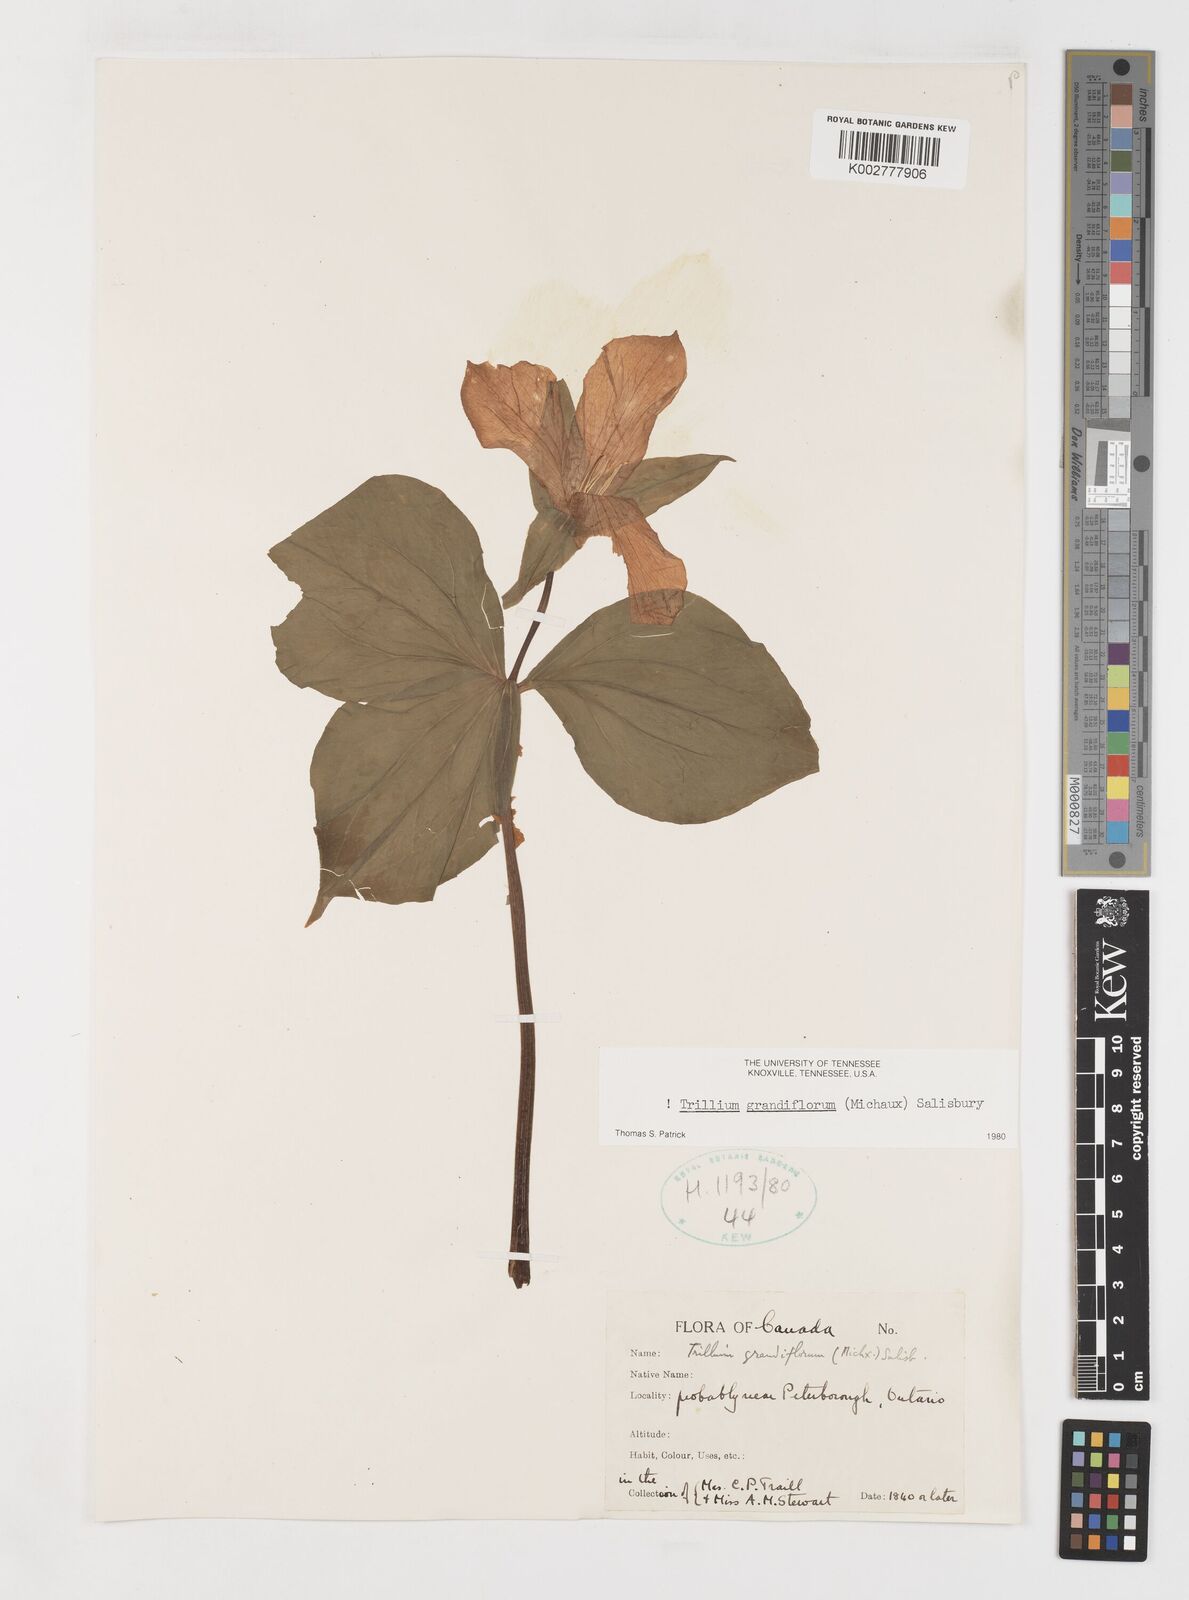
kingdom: Plantae
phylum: Tracheophyta
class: Liliopsida
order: Liliales
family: Melanthiaceae
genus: Trillium
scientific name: Trillium grandiflorum
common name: Great white trillium
